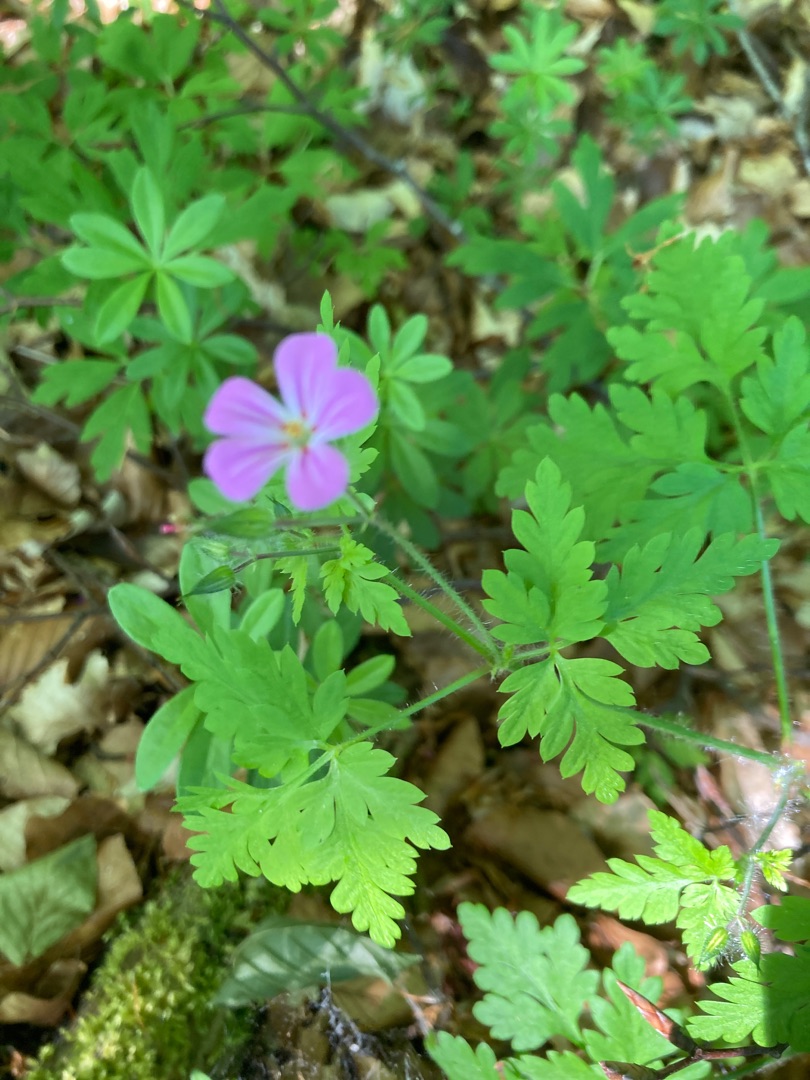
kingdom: Plantae
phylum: Tracheophyta
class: Magnoliopsida
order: Geraniales
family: Geraniaceae
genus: Geranium
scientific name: Geranium robertianum
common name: Stinkende storkenæb
